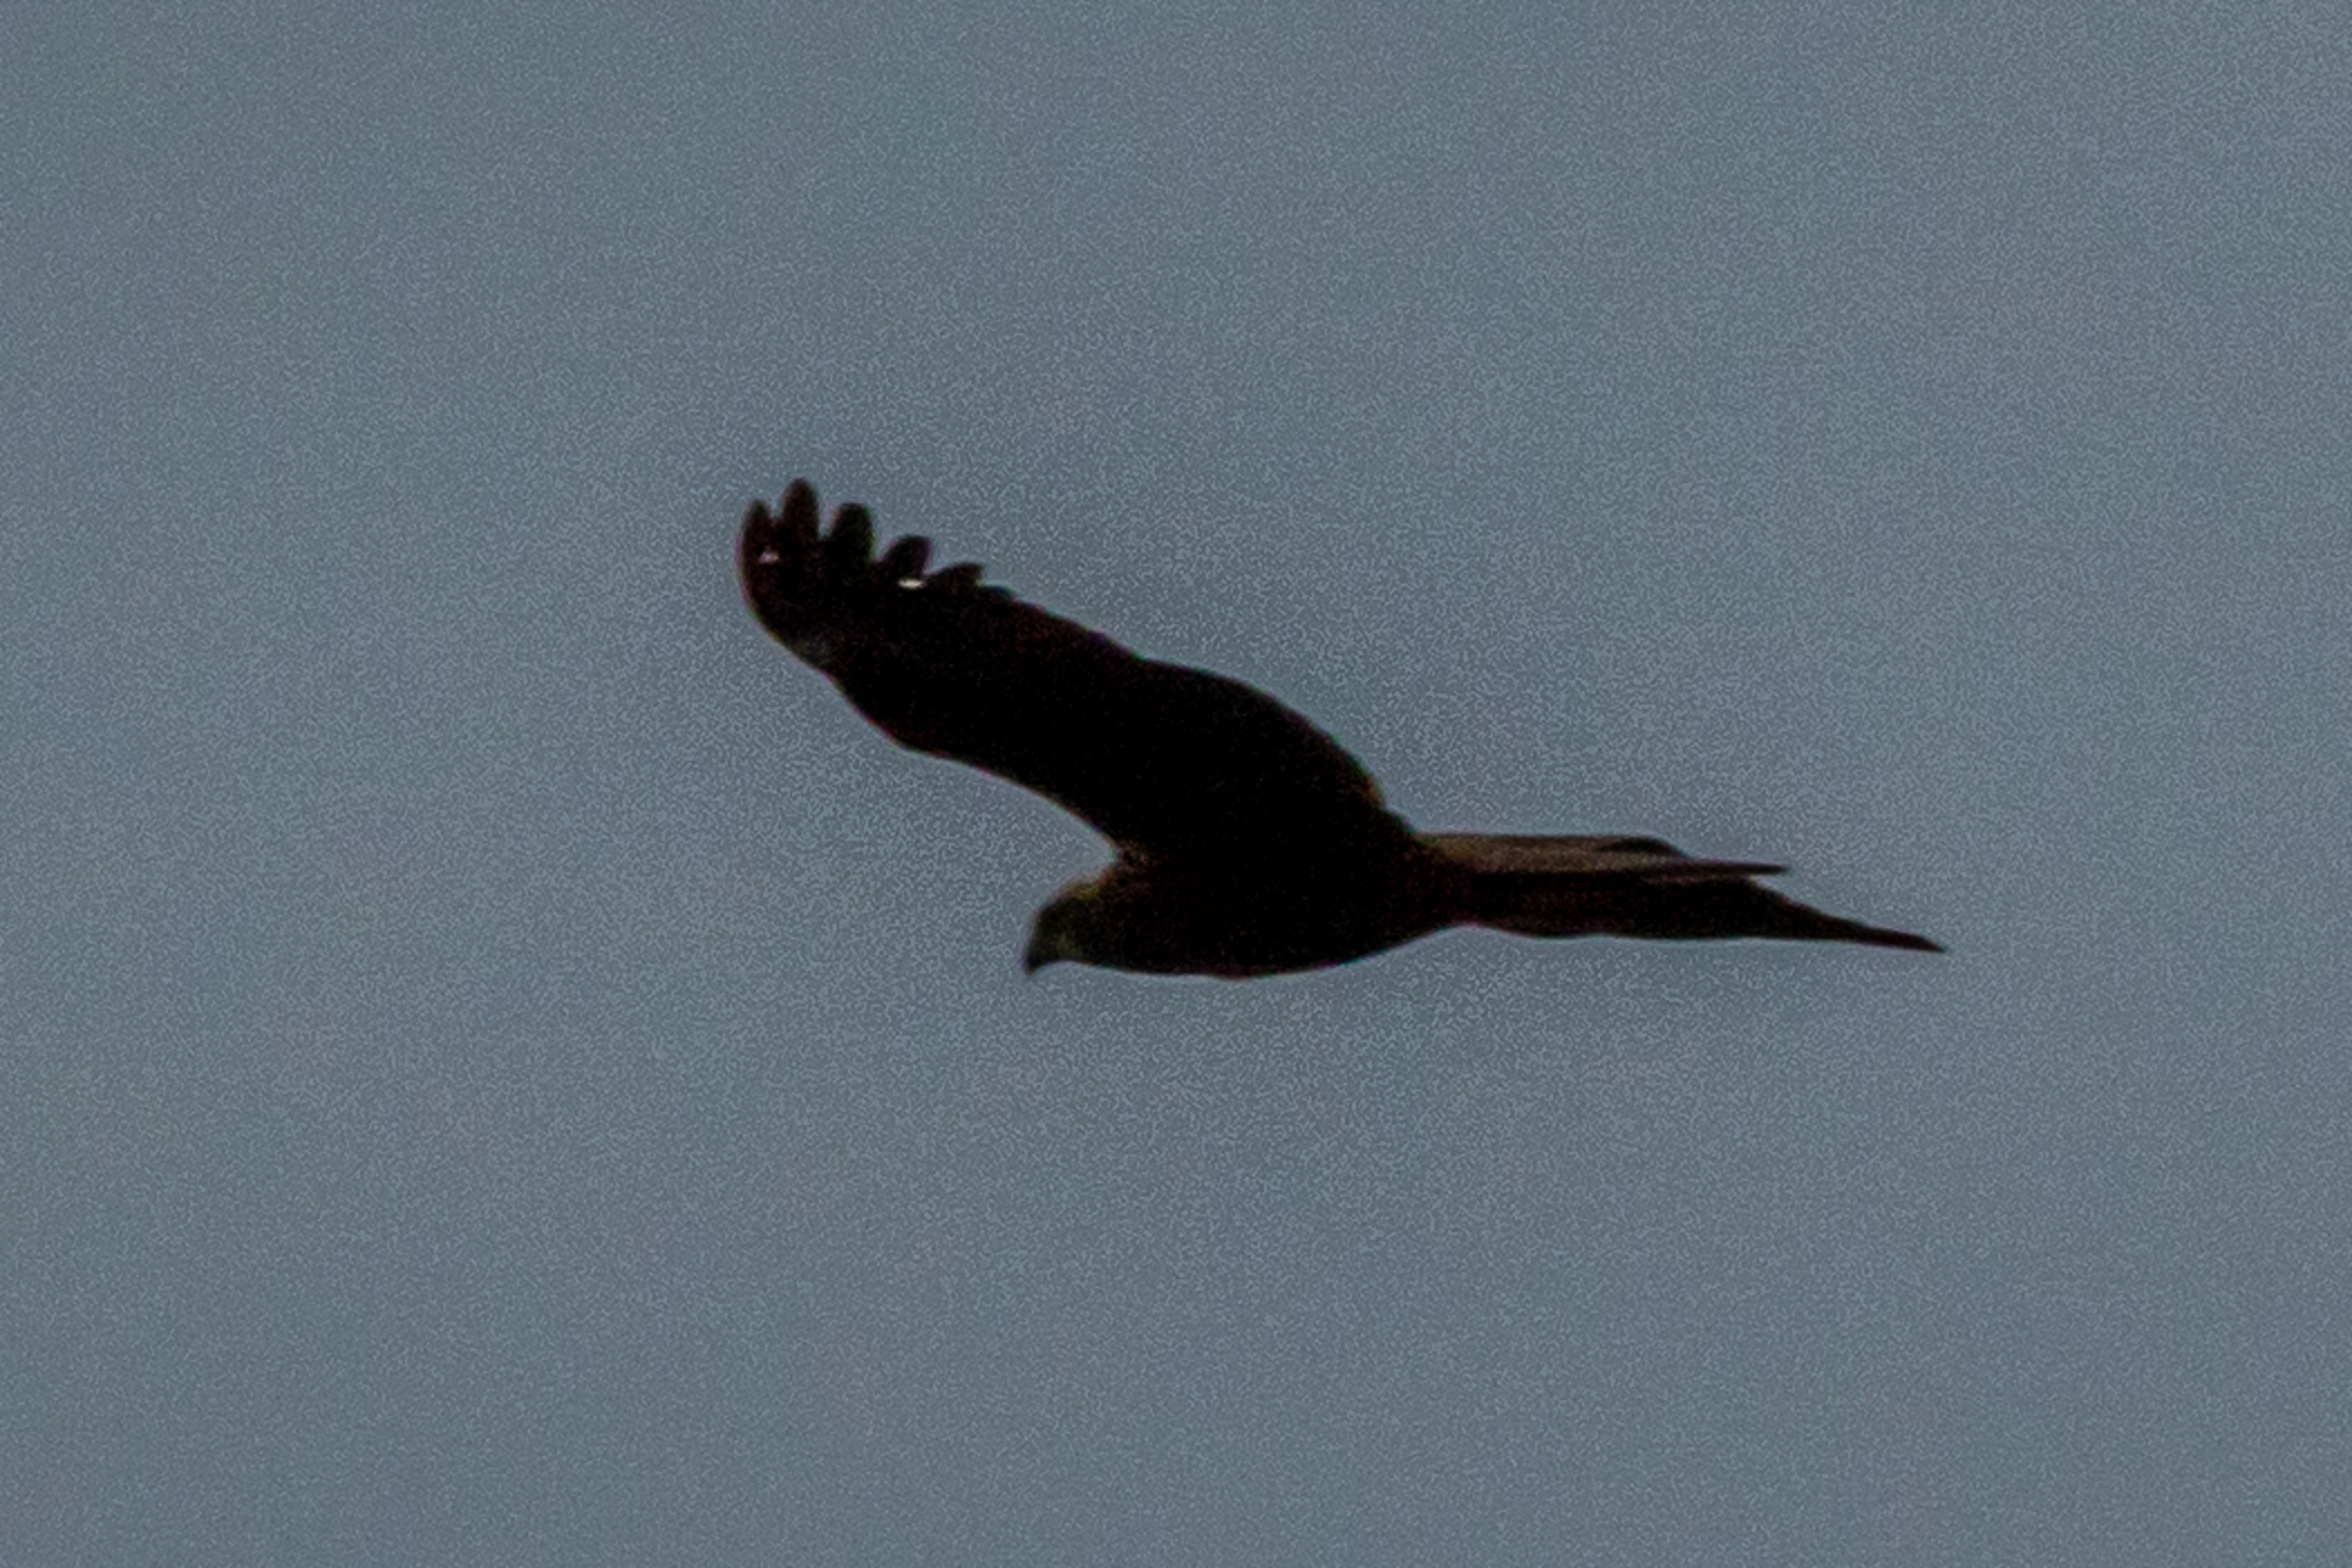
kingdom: Animalia
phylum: Chordata
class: Aves
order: Accipitriformes
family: Accipitridae
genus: Circus
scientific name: Circus aeruginosus
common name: Rørhøg
